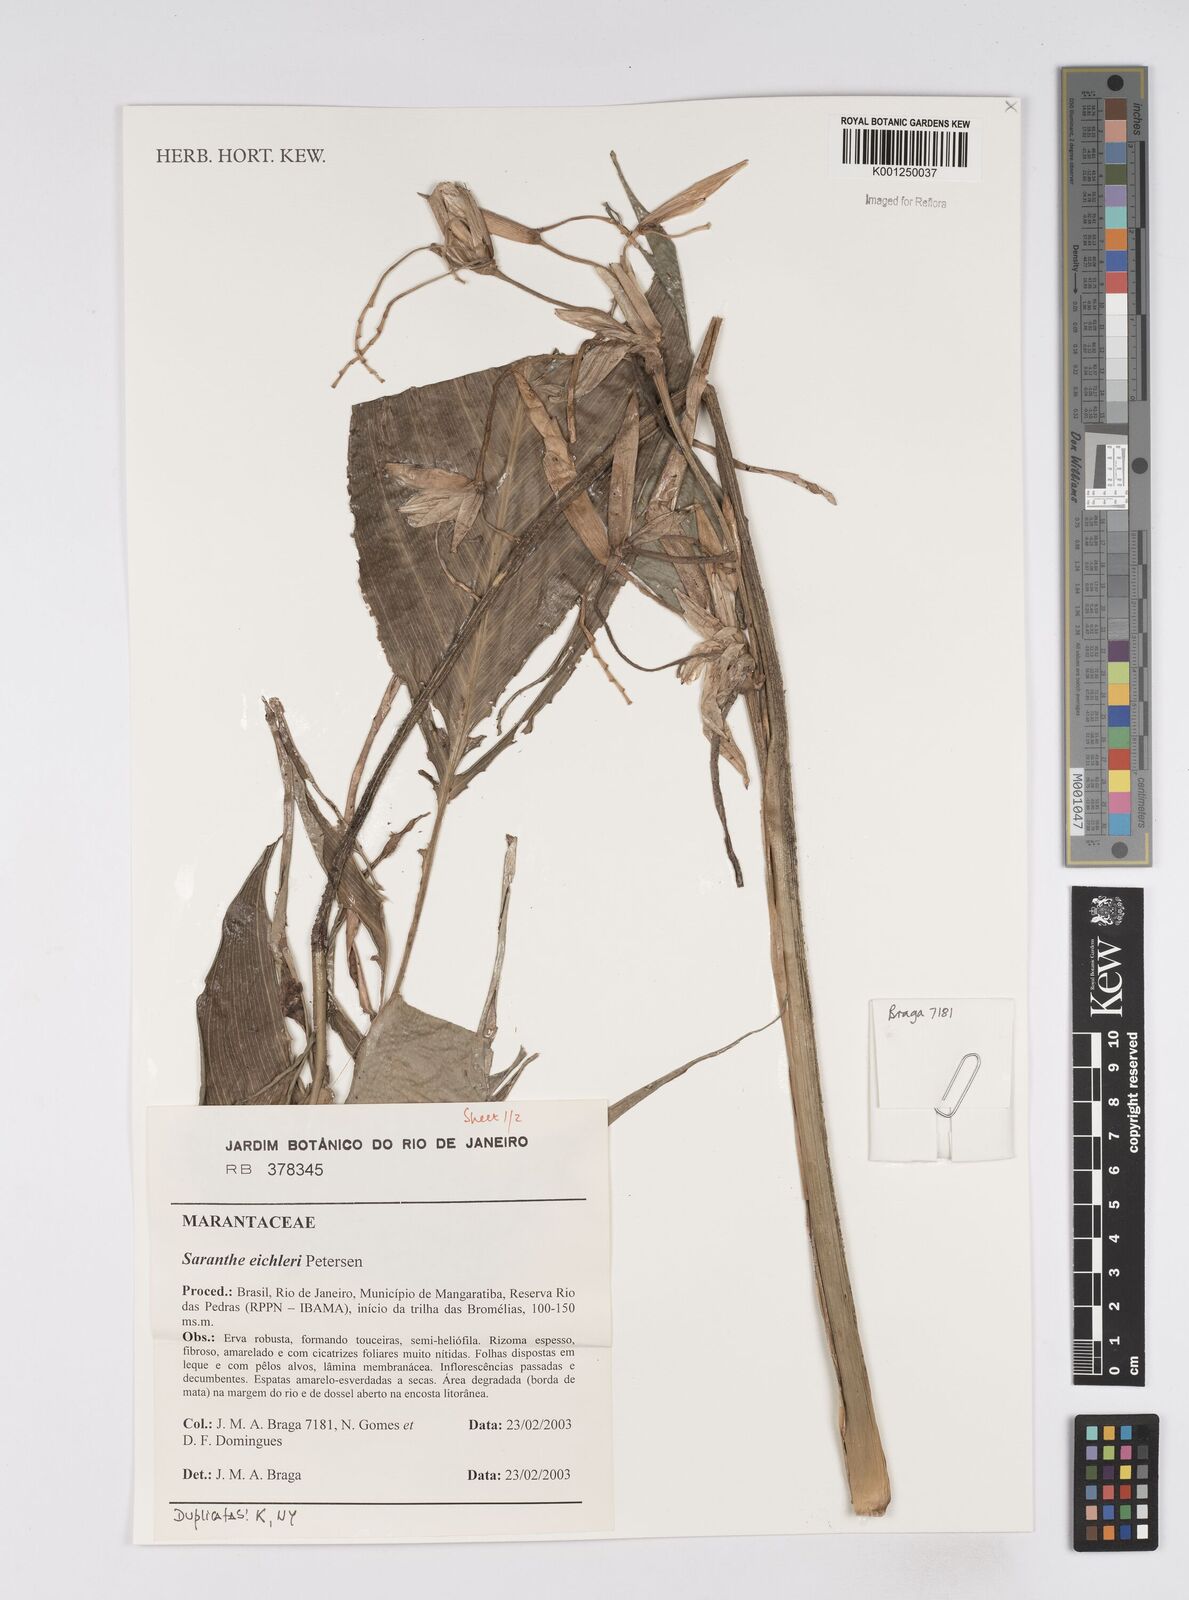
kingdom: Plantae
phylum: Tracheophyta
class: Liliopsida
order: Zingiberales
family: Marantaceae
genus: Saranthe
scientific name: Saranthe eichleri
